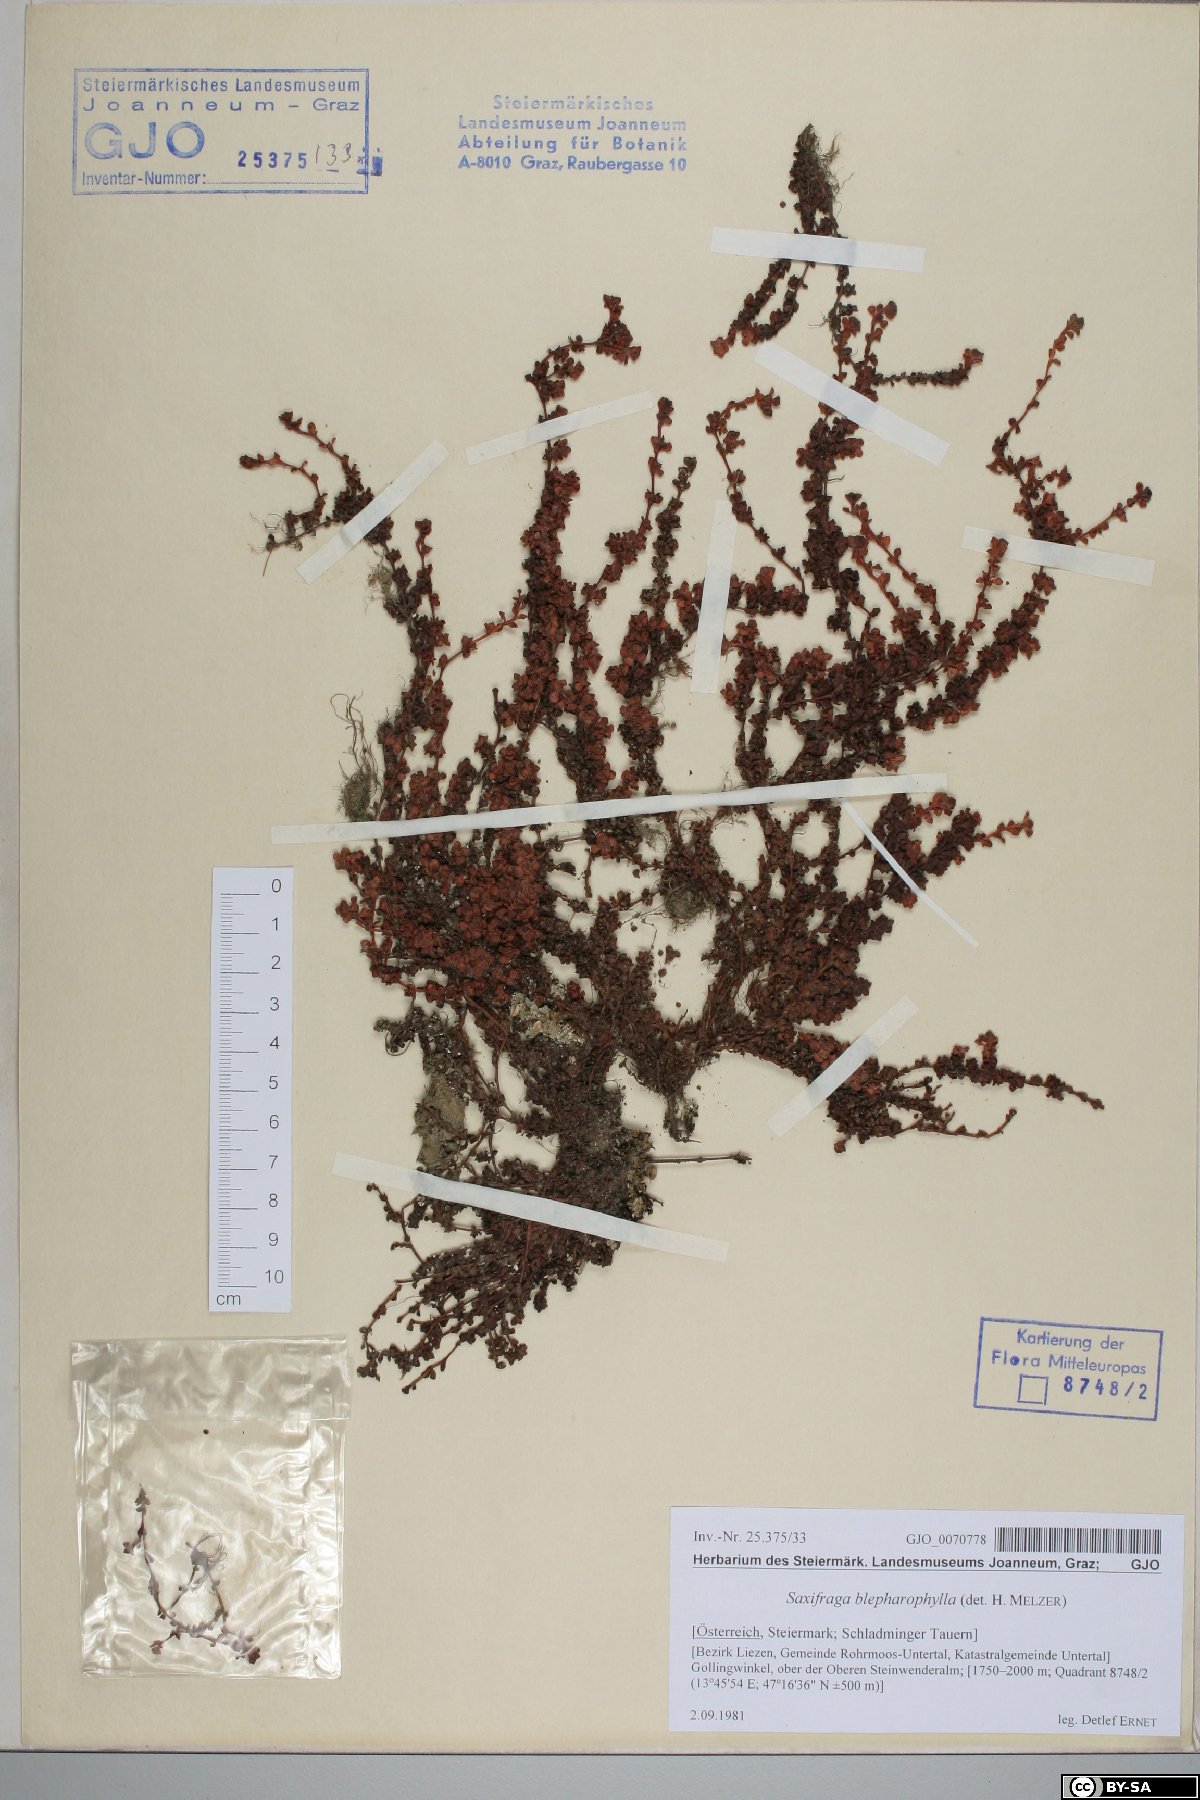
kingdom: Plantae
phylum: Tracheophyta
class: Magnoliopsida
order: Saxifragales
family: Saxifragaceae
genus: Saxifraga
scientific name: Saxifraga oppositifolia
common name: Purple saxifrage
